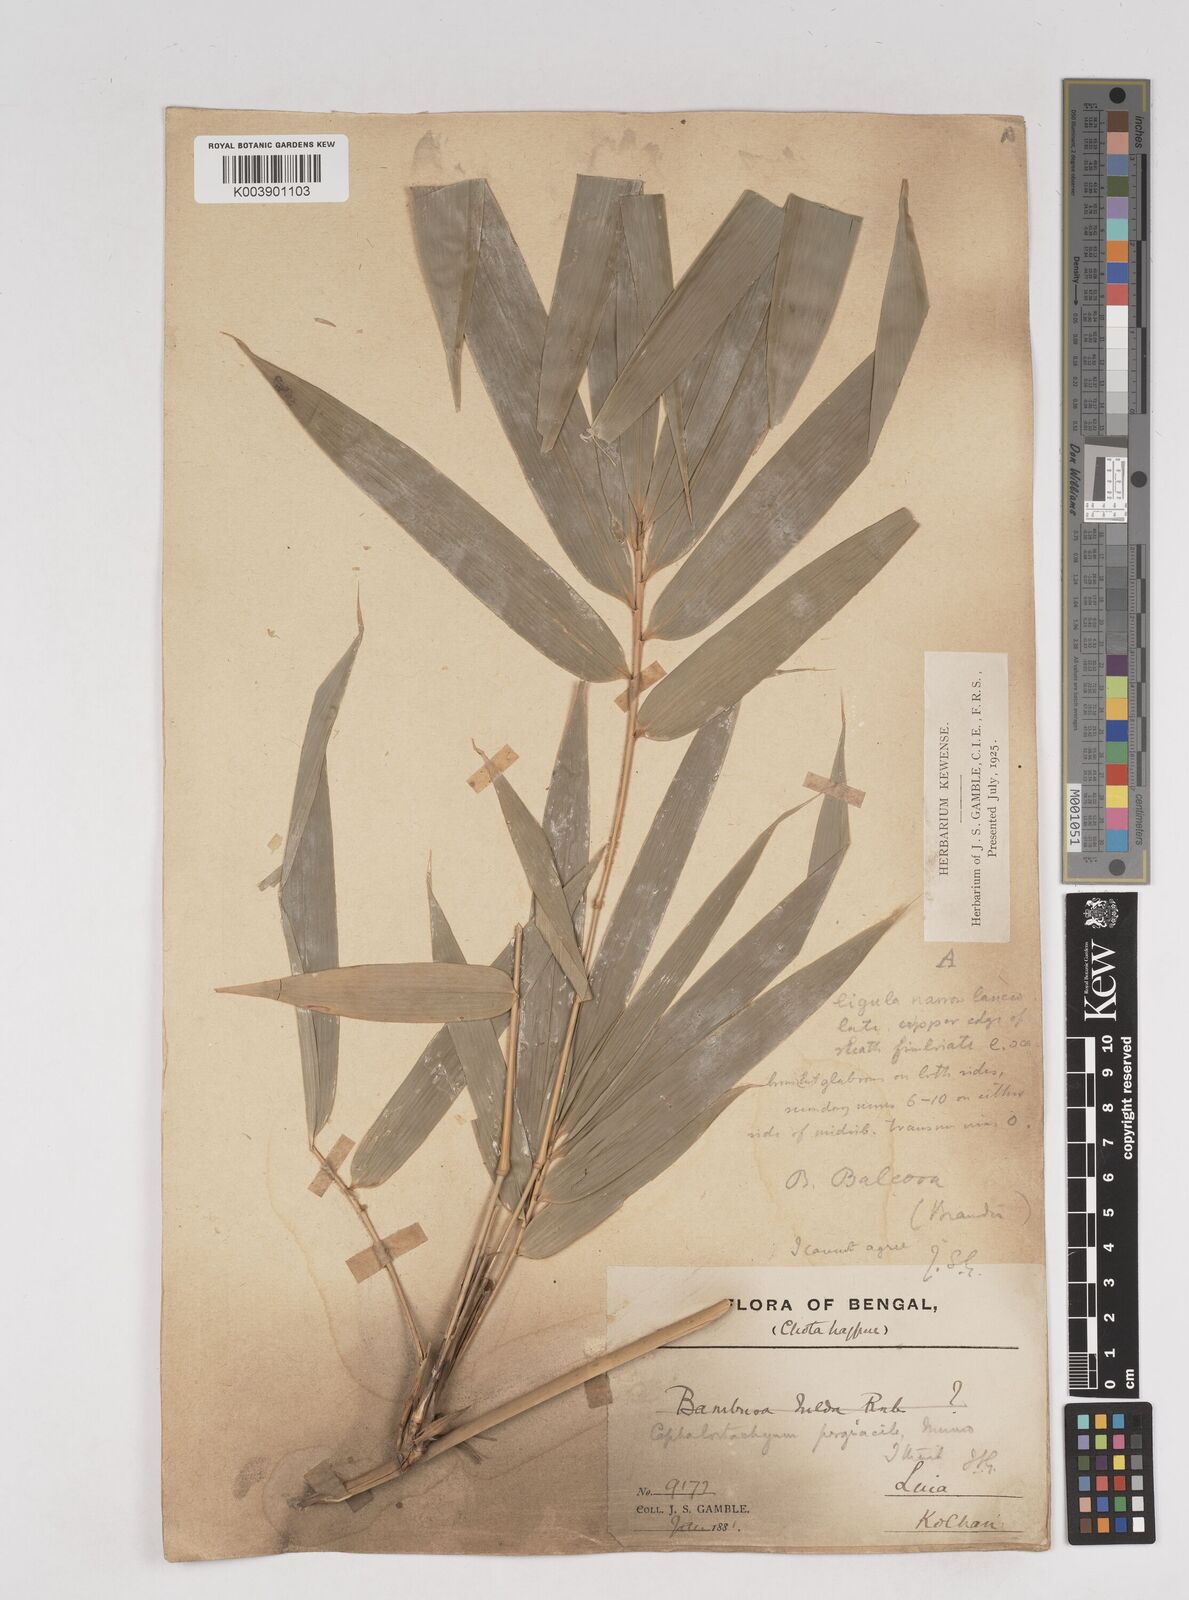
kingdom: Plantae
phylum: Tracheophyta
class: Liliopsida
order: Poales
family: Poaceae
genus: Schizostachyum
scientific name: Schizostachyum pergracile
